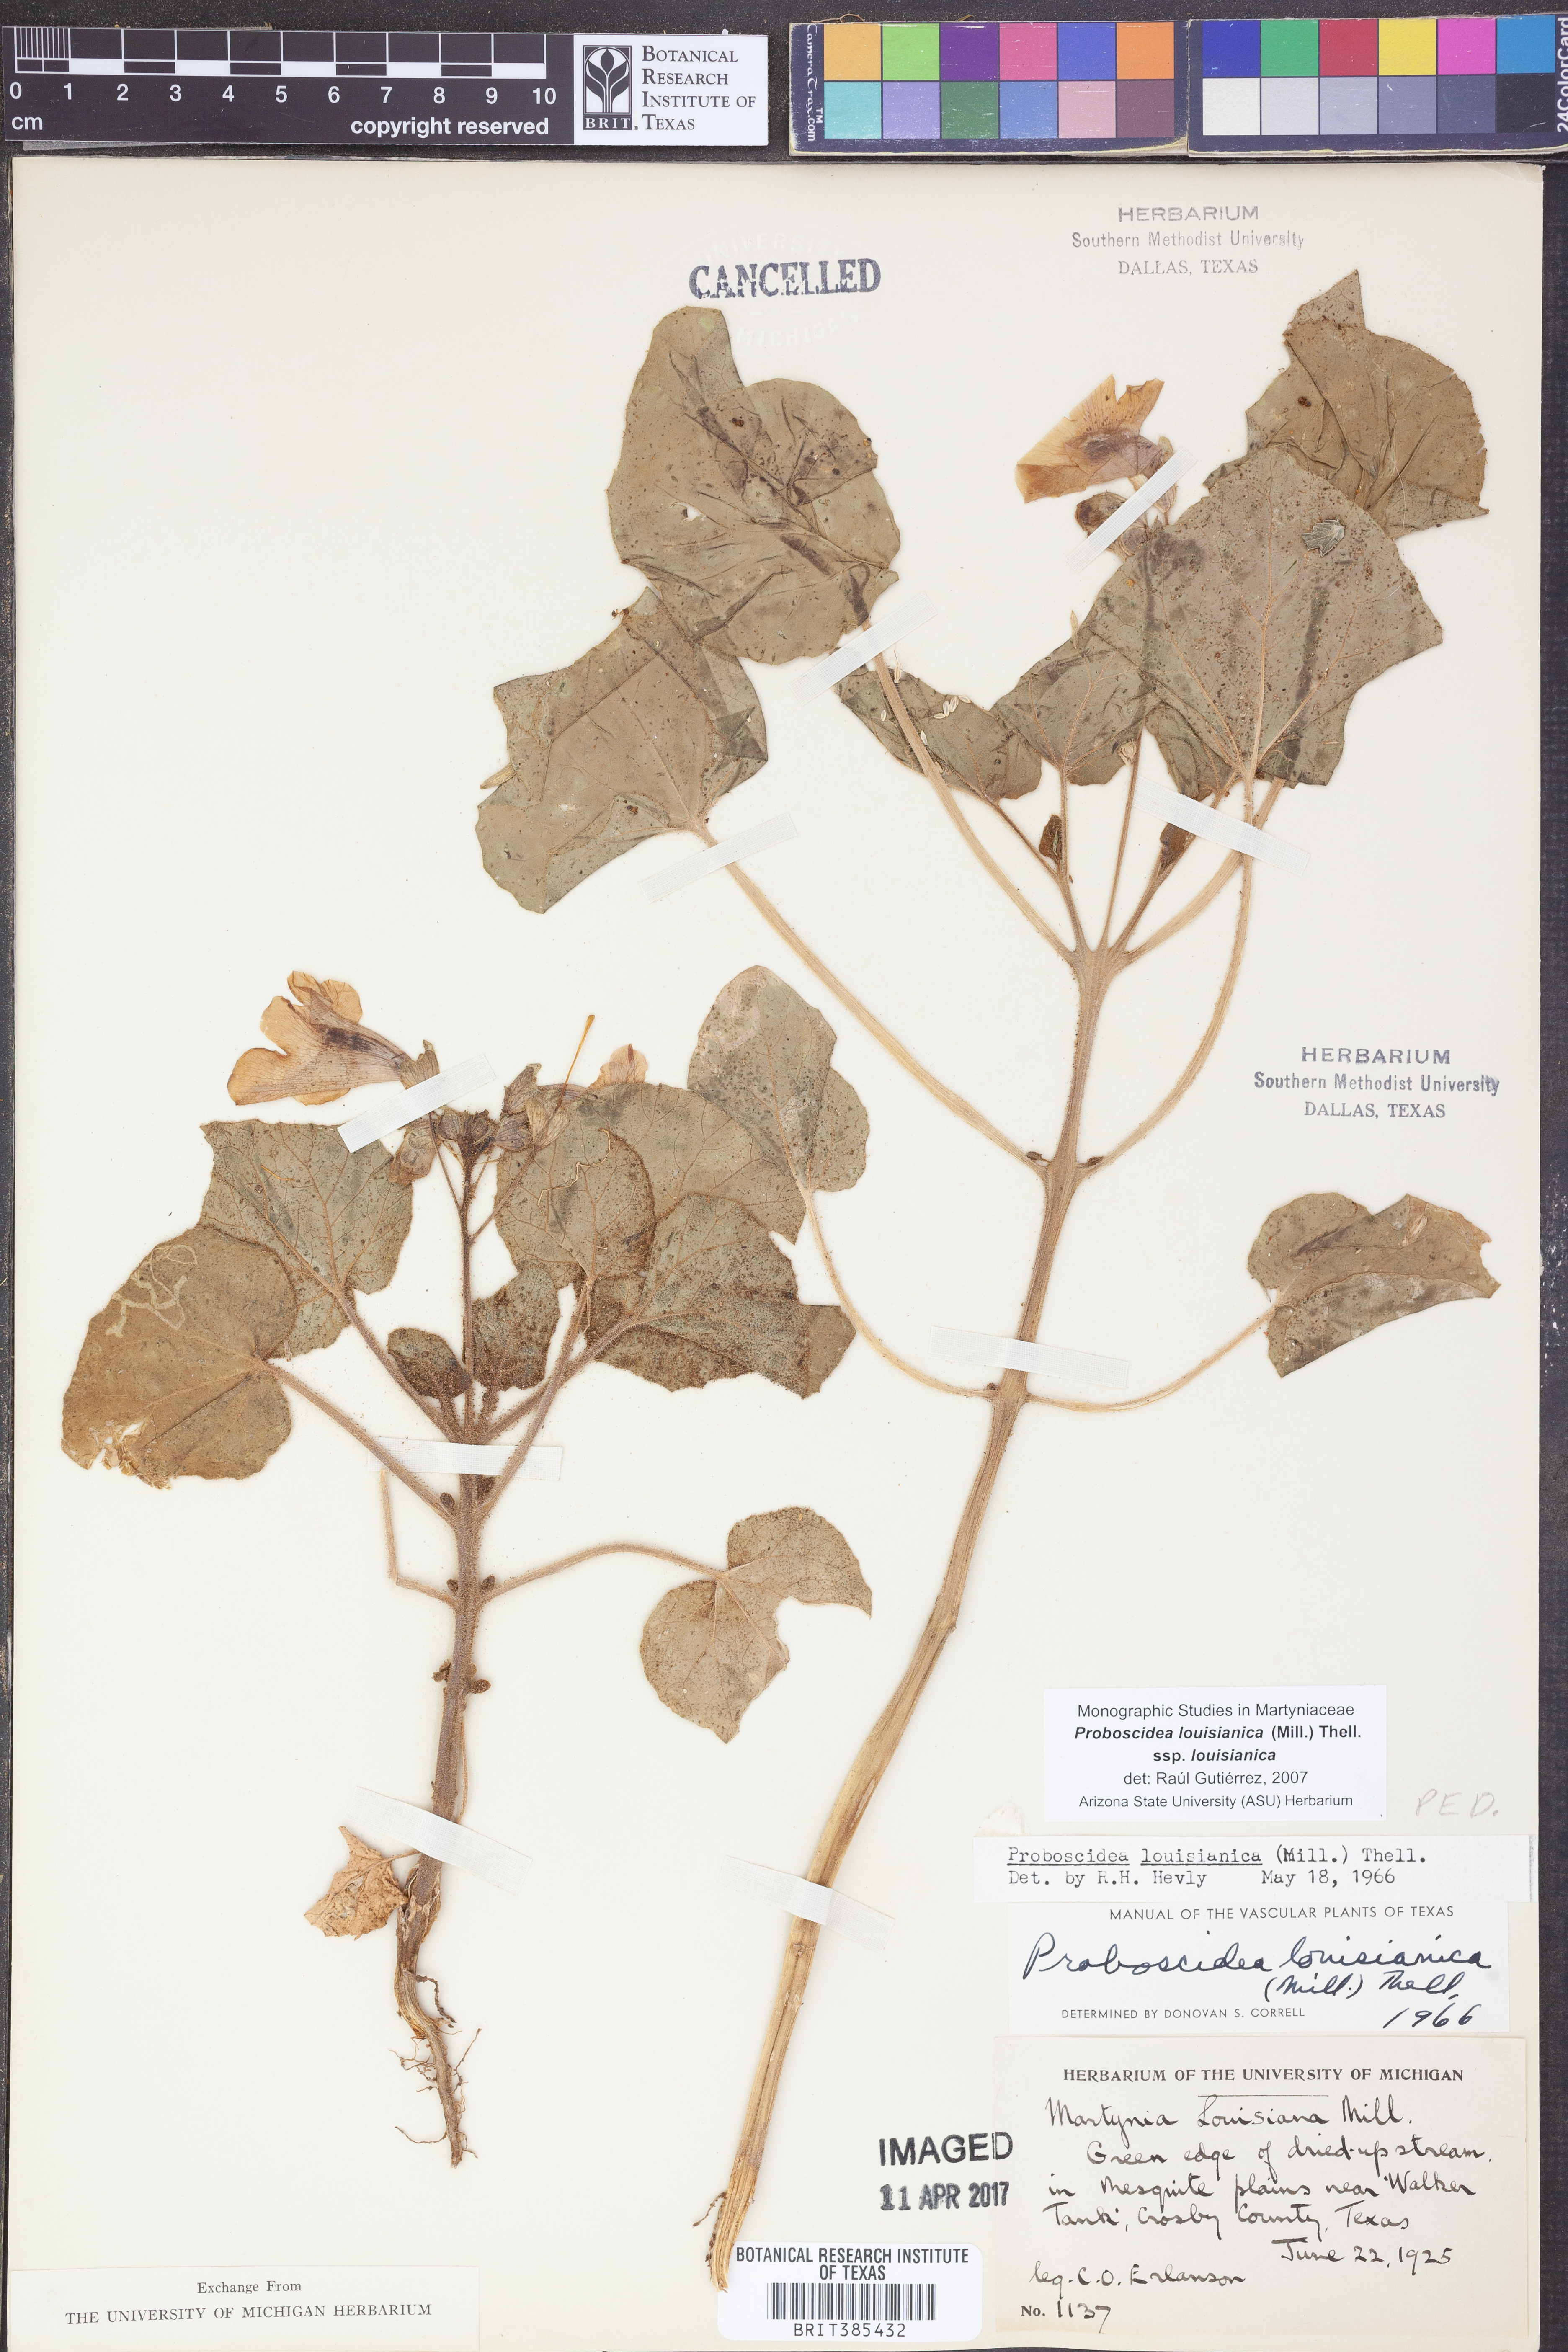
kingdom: Plantae
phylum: Tracheophyta
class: Magnoliopsida
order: Lamiales
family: Martyniaceae
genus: Proboscidea
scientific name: Proboscidea louisianica
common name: Elephant tusks
